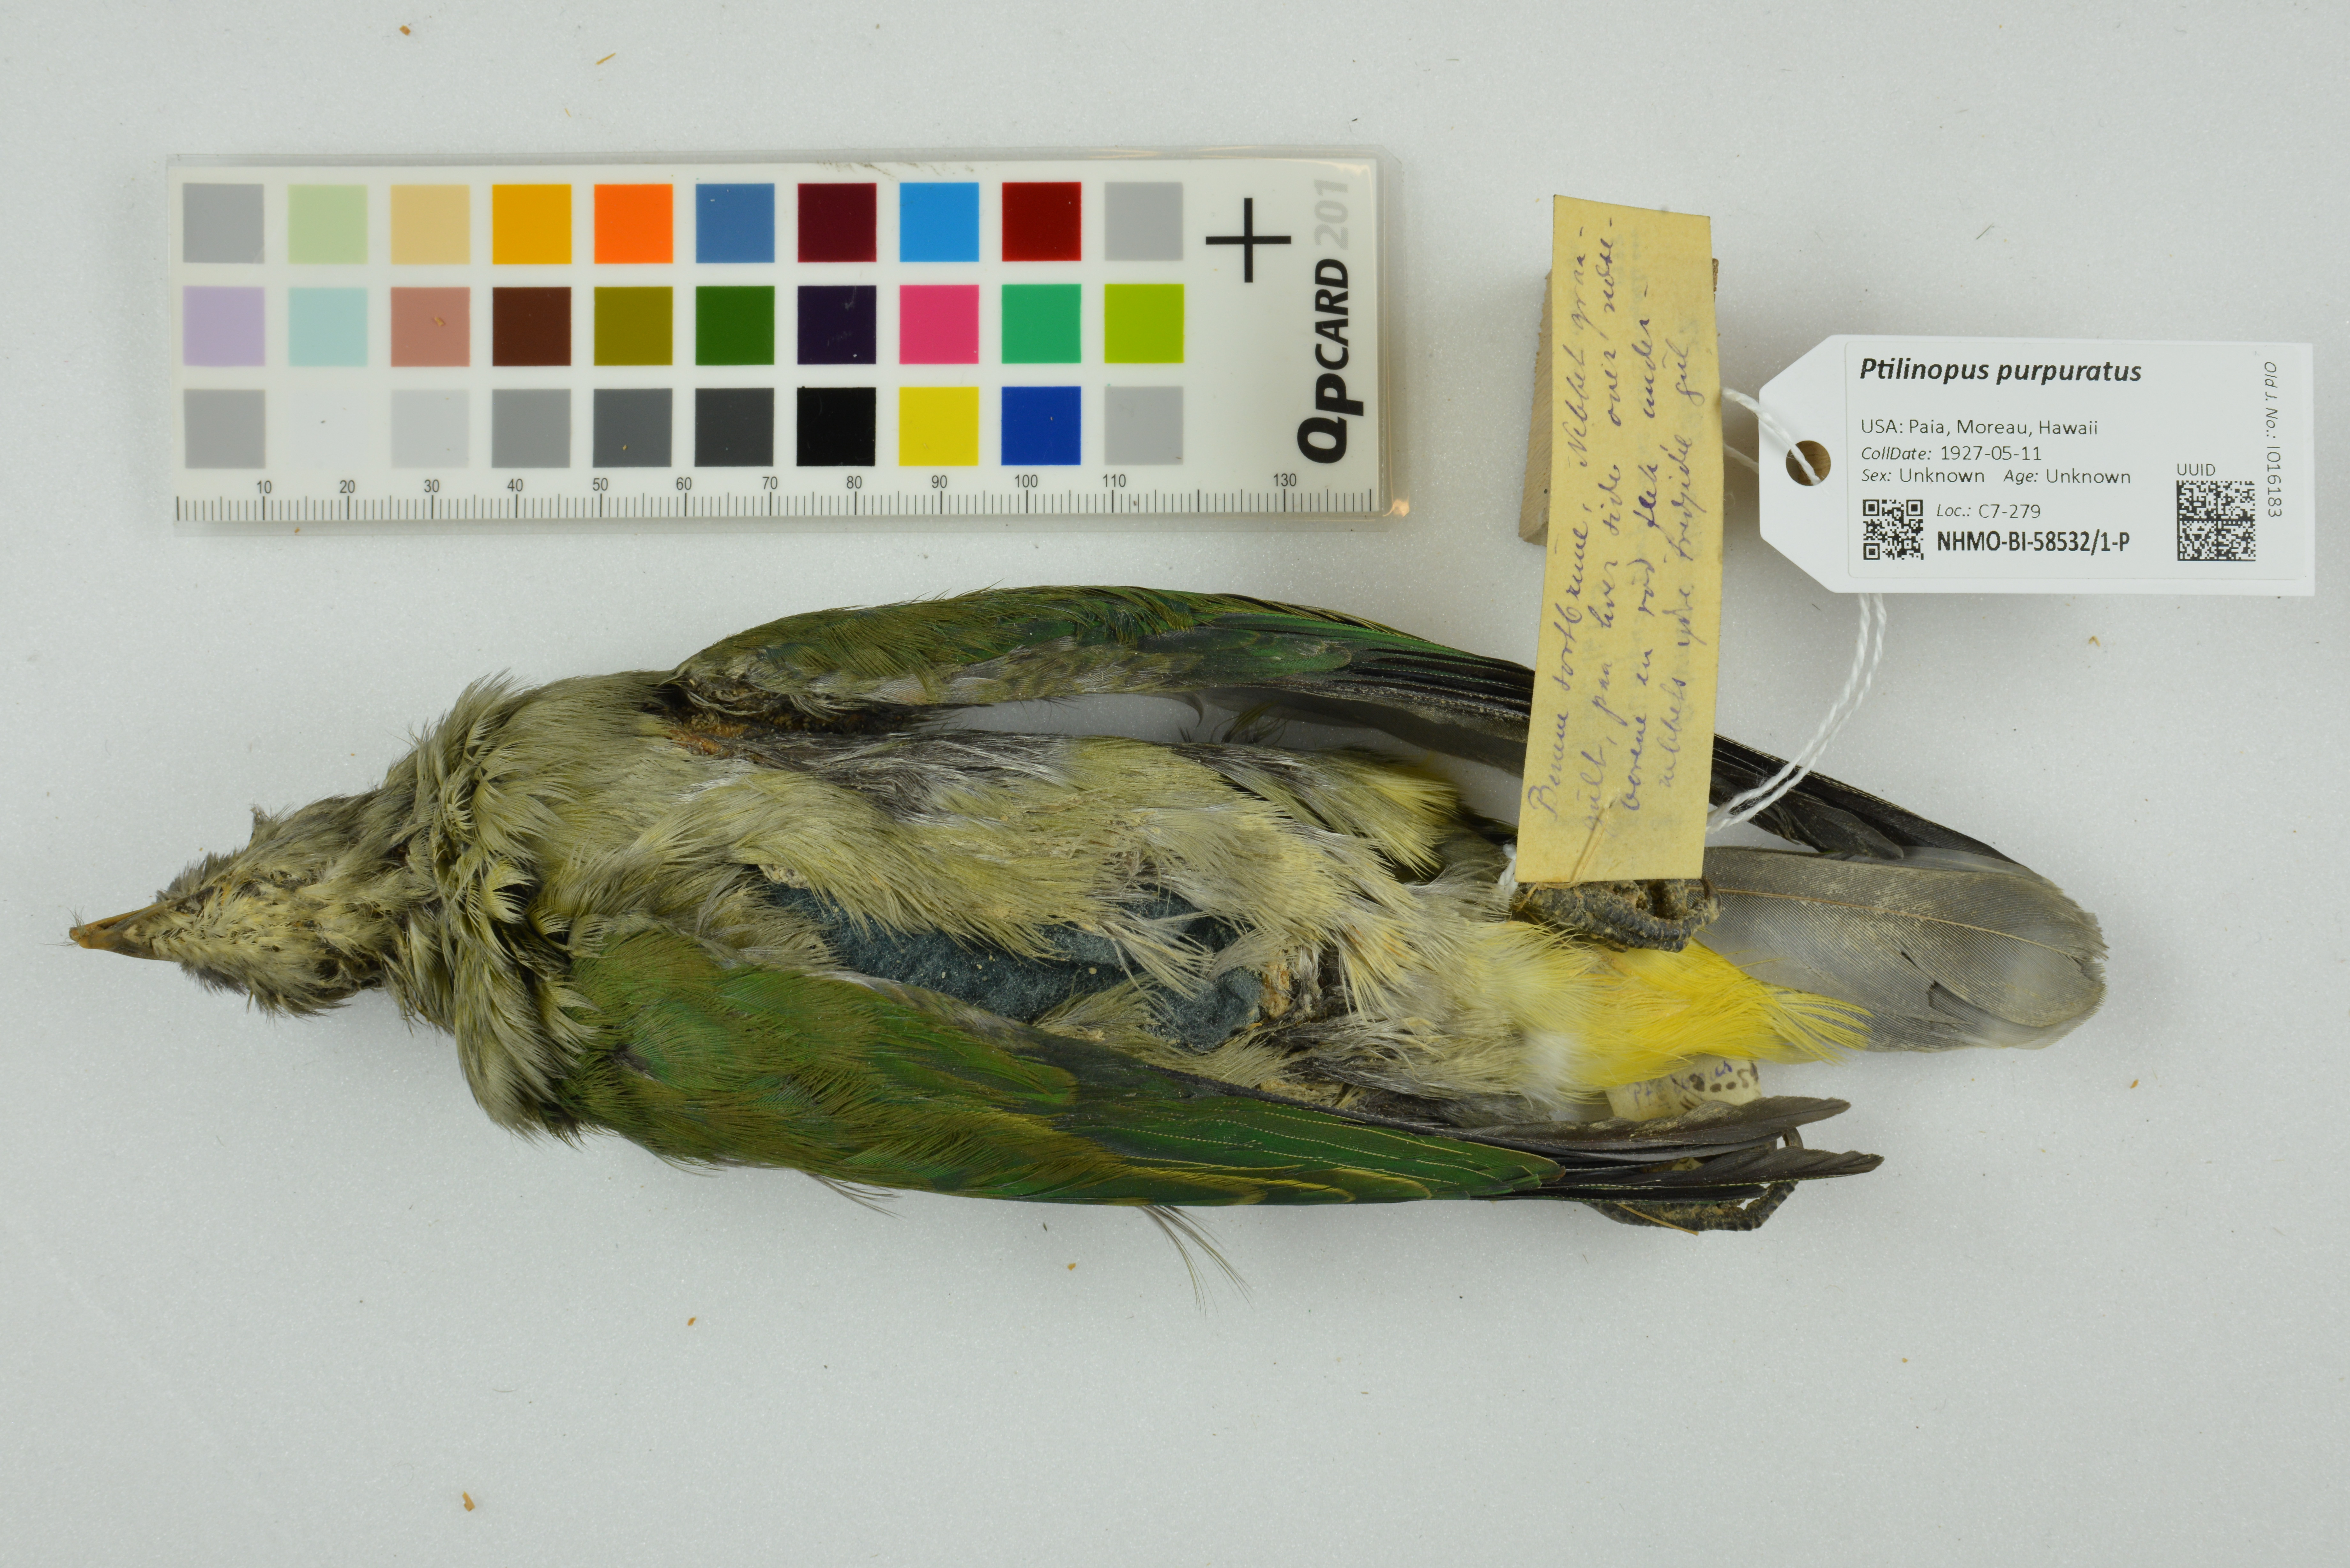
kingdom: Animalia
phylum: Chordata
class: Aves
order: Columbiformes
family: Columbidae
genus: Ptilinopus
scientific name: Ptilinopus purpuratus
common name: Grey-green fruit dove
